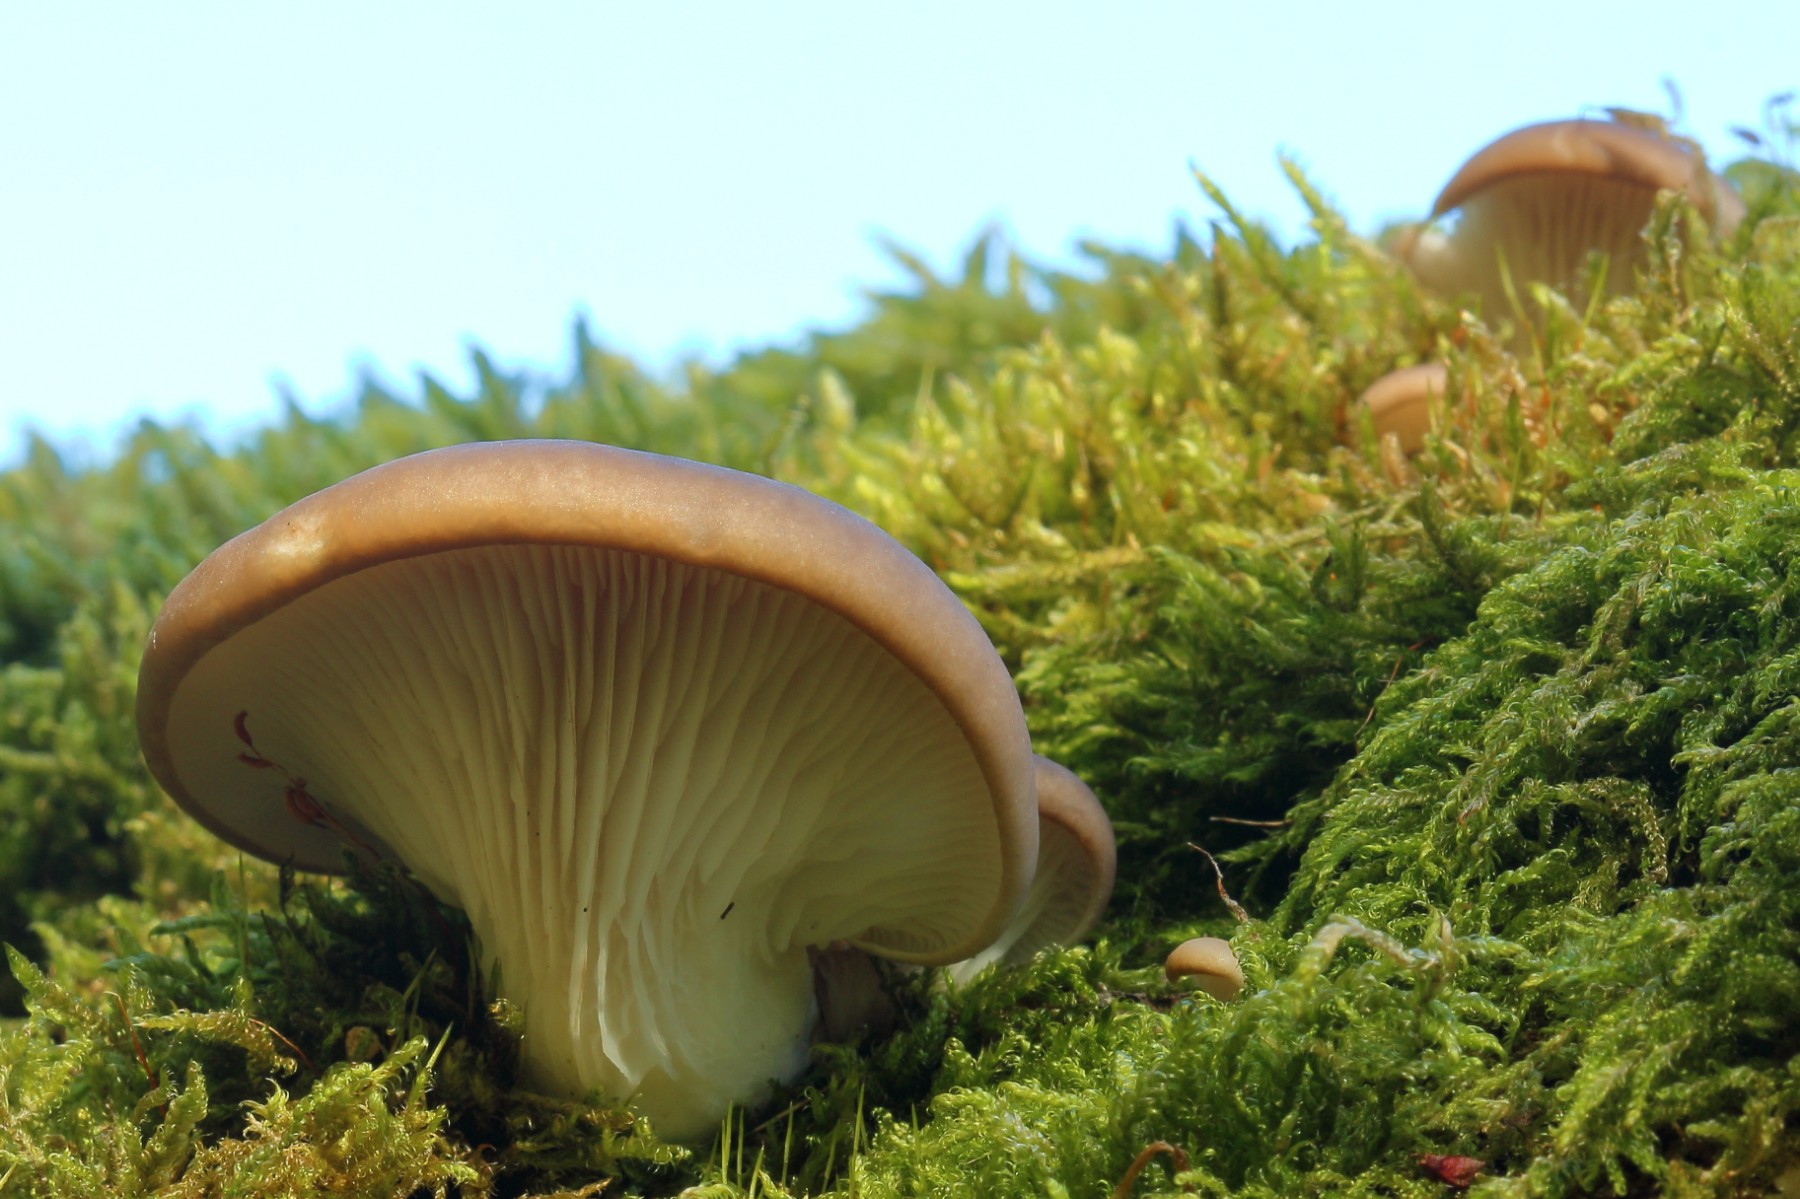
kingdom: Fungi
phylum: Basidiomycota
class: Agaricomycetes
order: Agaricales
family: Pleurotaceae
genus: Pleurotus
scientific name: Pleurotus ostreatus
